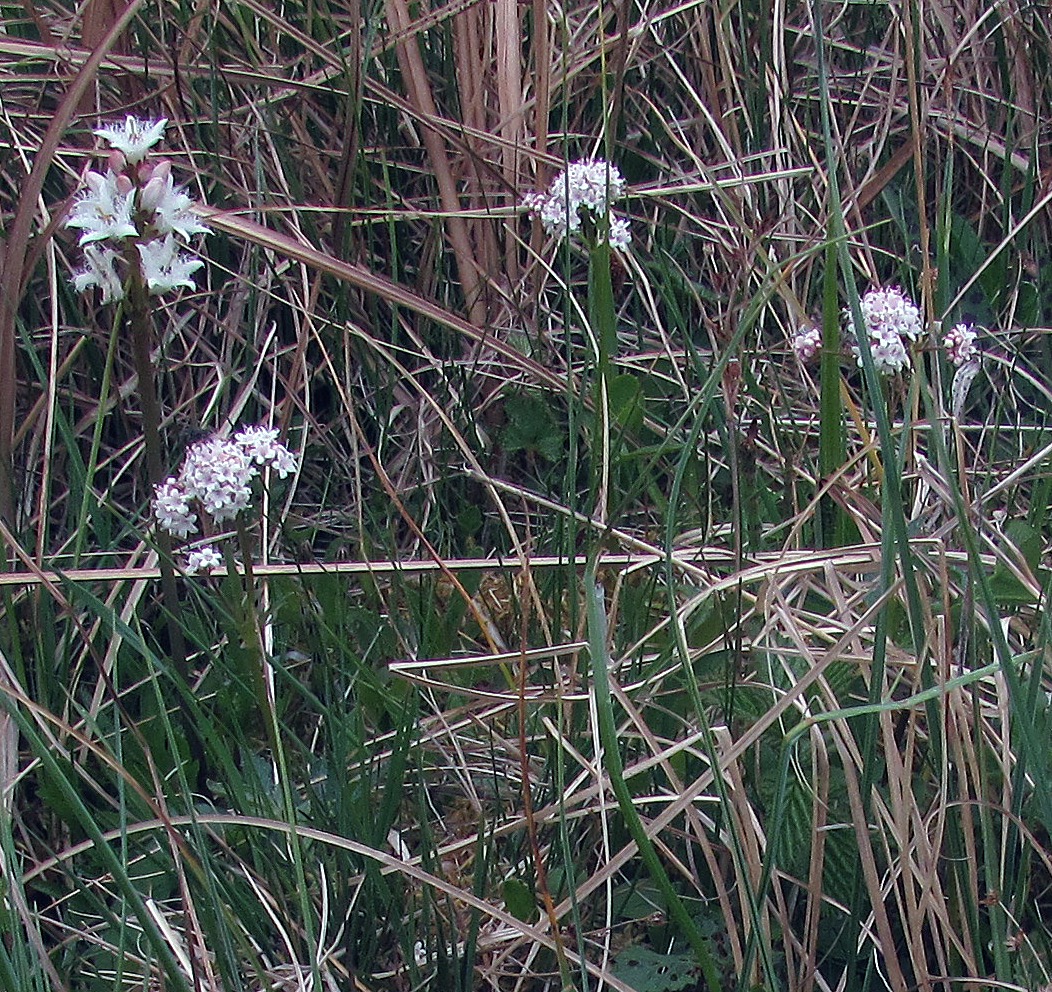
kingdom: Plantae
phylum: Tracheophyta
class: Magnoliopsida
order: Dipsacales
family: Caprifoliaceae
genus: Valeriana
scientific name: Valeriana dioica
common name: Tvebo baldrian
